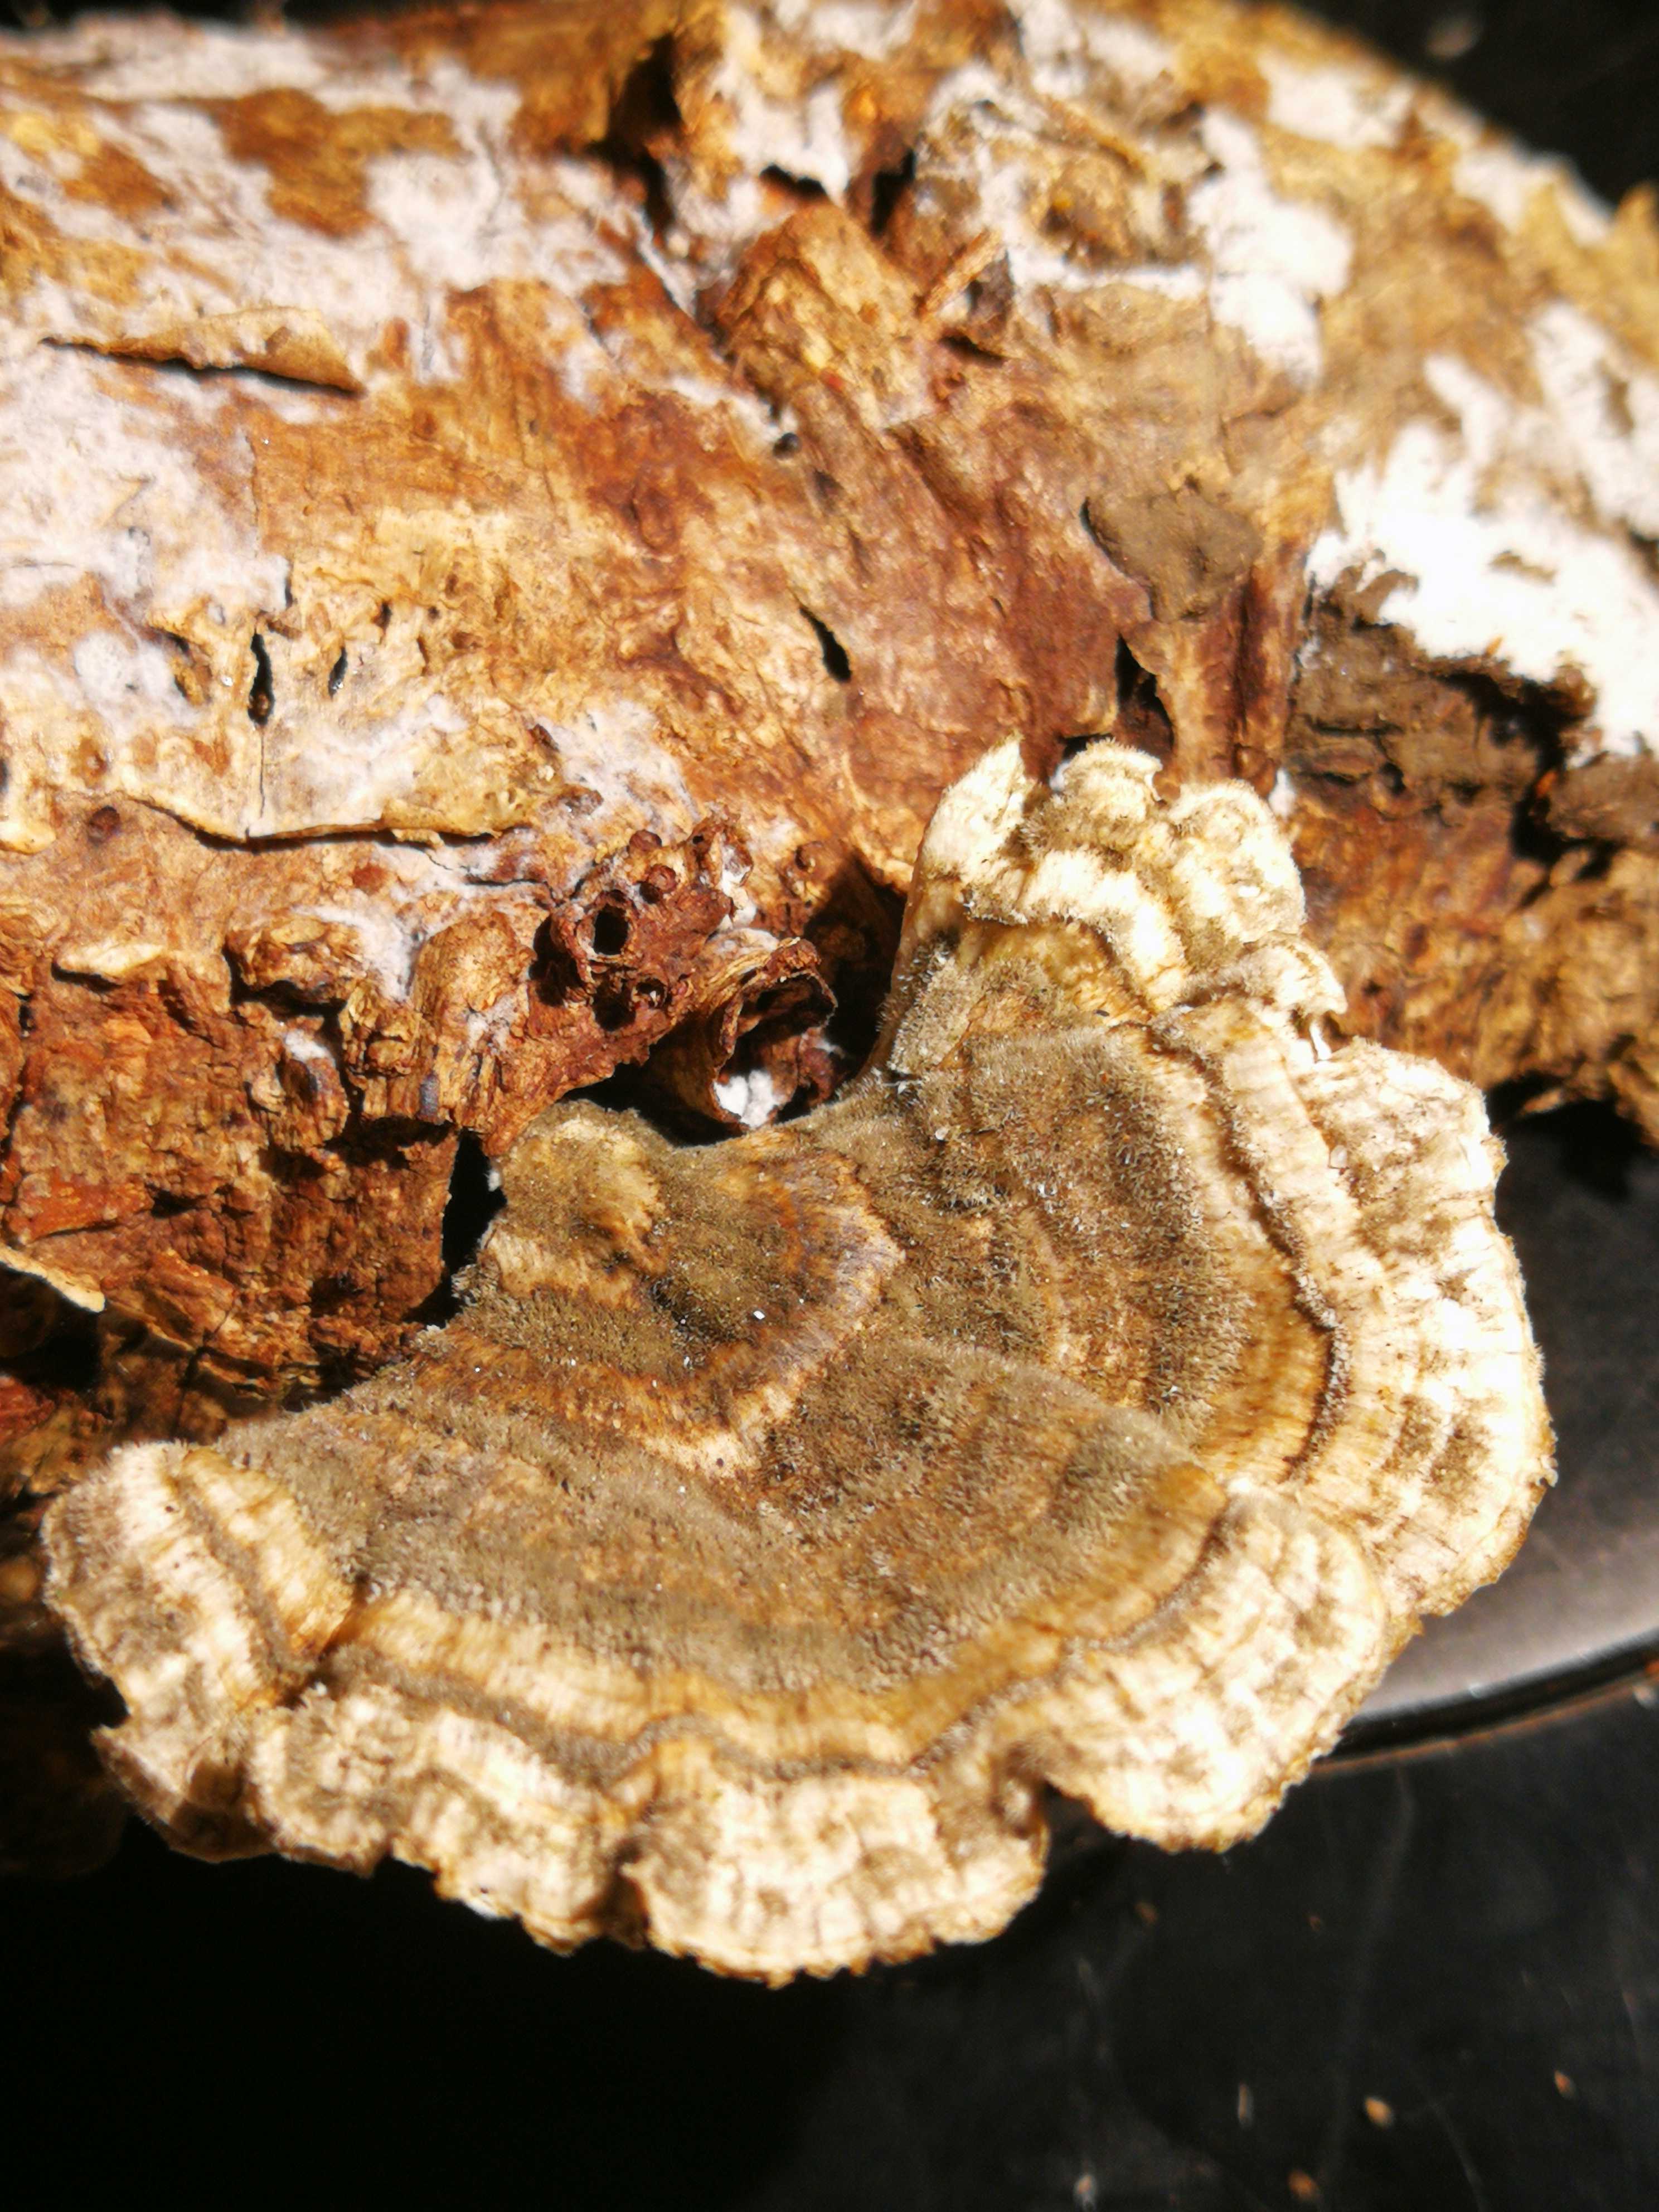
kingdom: Fungi
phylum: Basidiomycota
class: Agaricomycetes
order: Polyporales
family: Polyporaceae
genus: Trametes
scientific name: Trametes versicolor
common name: broget læderporesvamp
